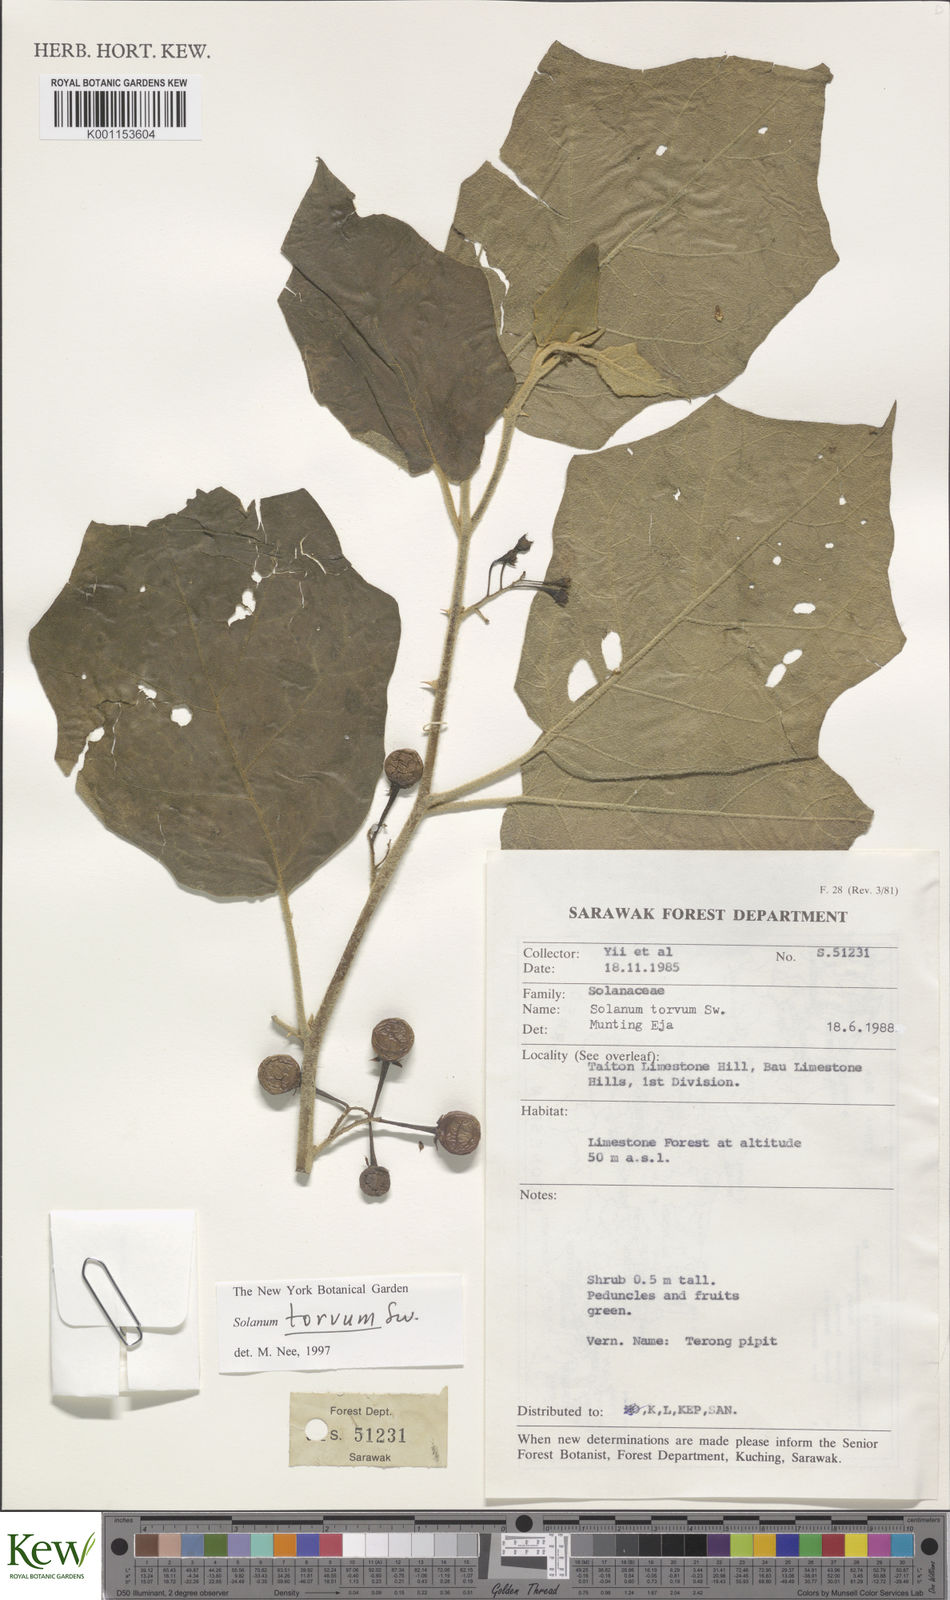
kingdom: Plantae
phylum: Tracheophyta
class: Magnoliopsida
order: Solanales
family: Solanaceae
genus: Solanum
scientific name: Solanum torvum
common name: Turkey berry
